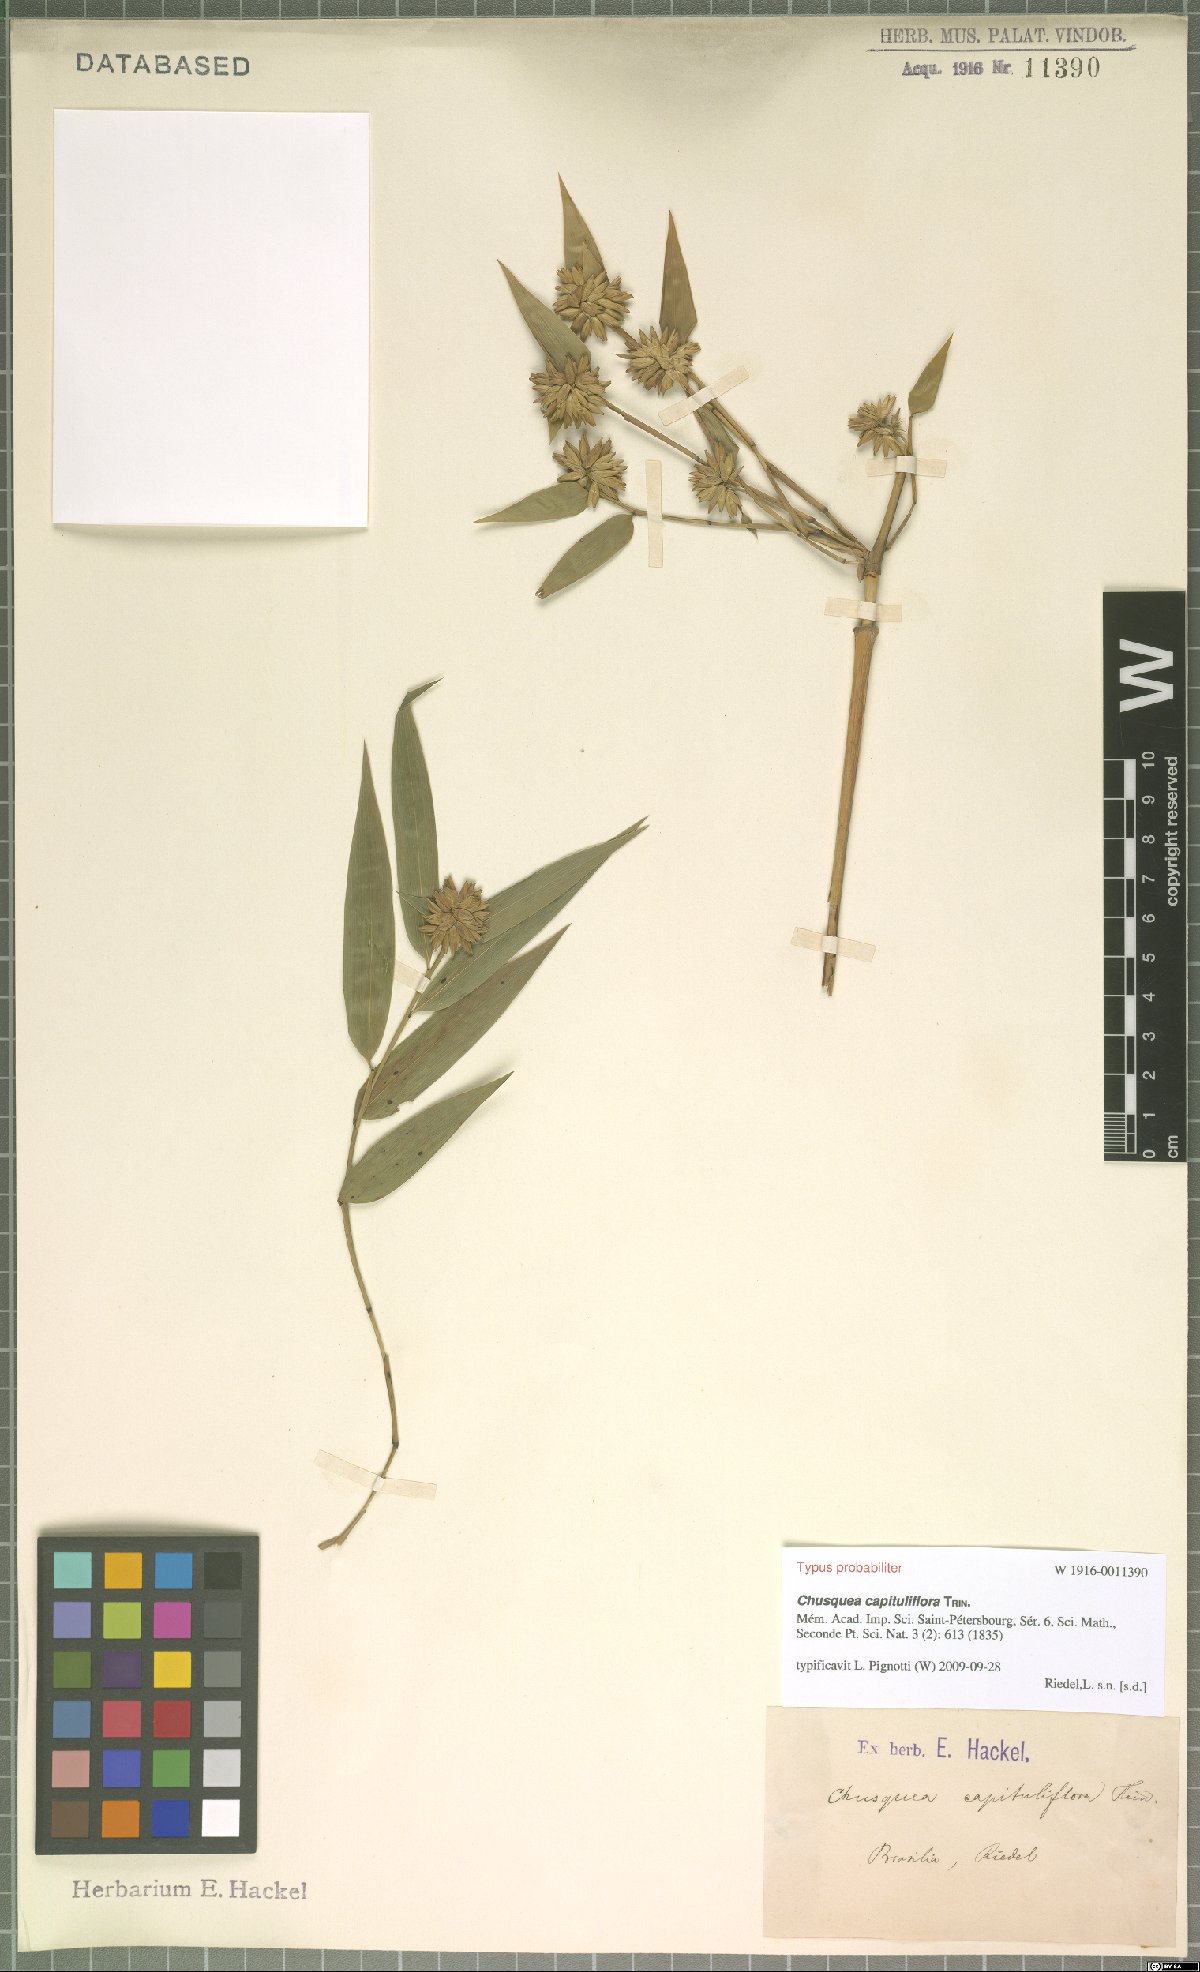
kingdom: Plantae
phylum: Tracheophyta
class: Liliopsida
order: Poales
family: Poaceae
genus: Chusquea
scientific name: Chusquea capituliflora
